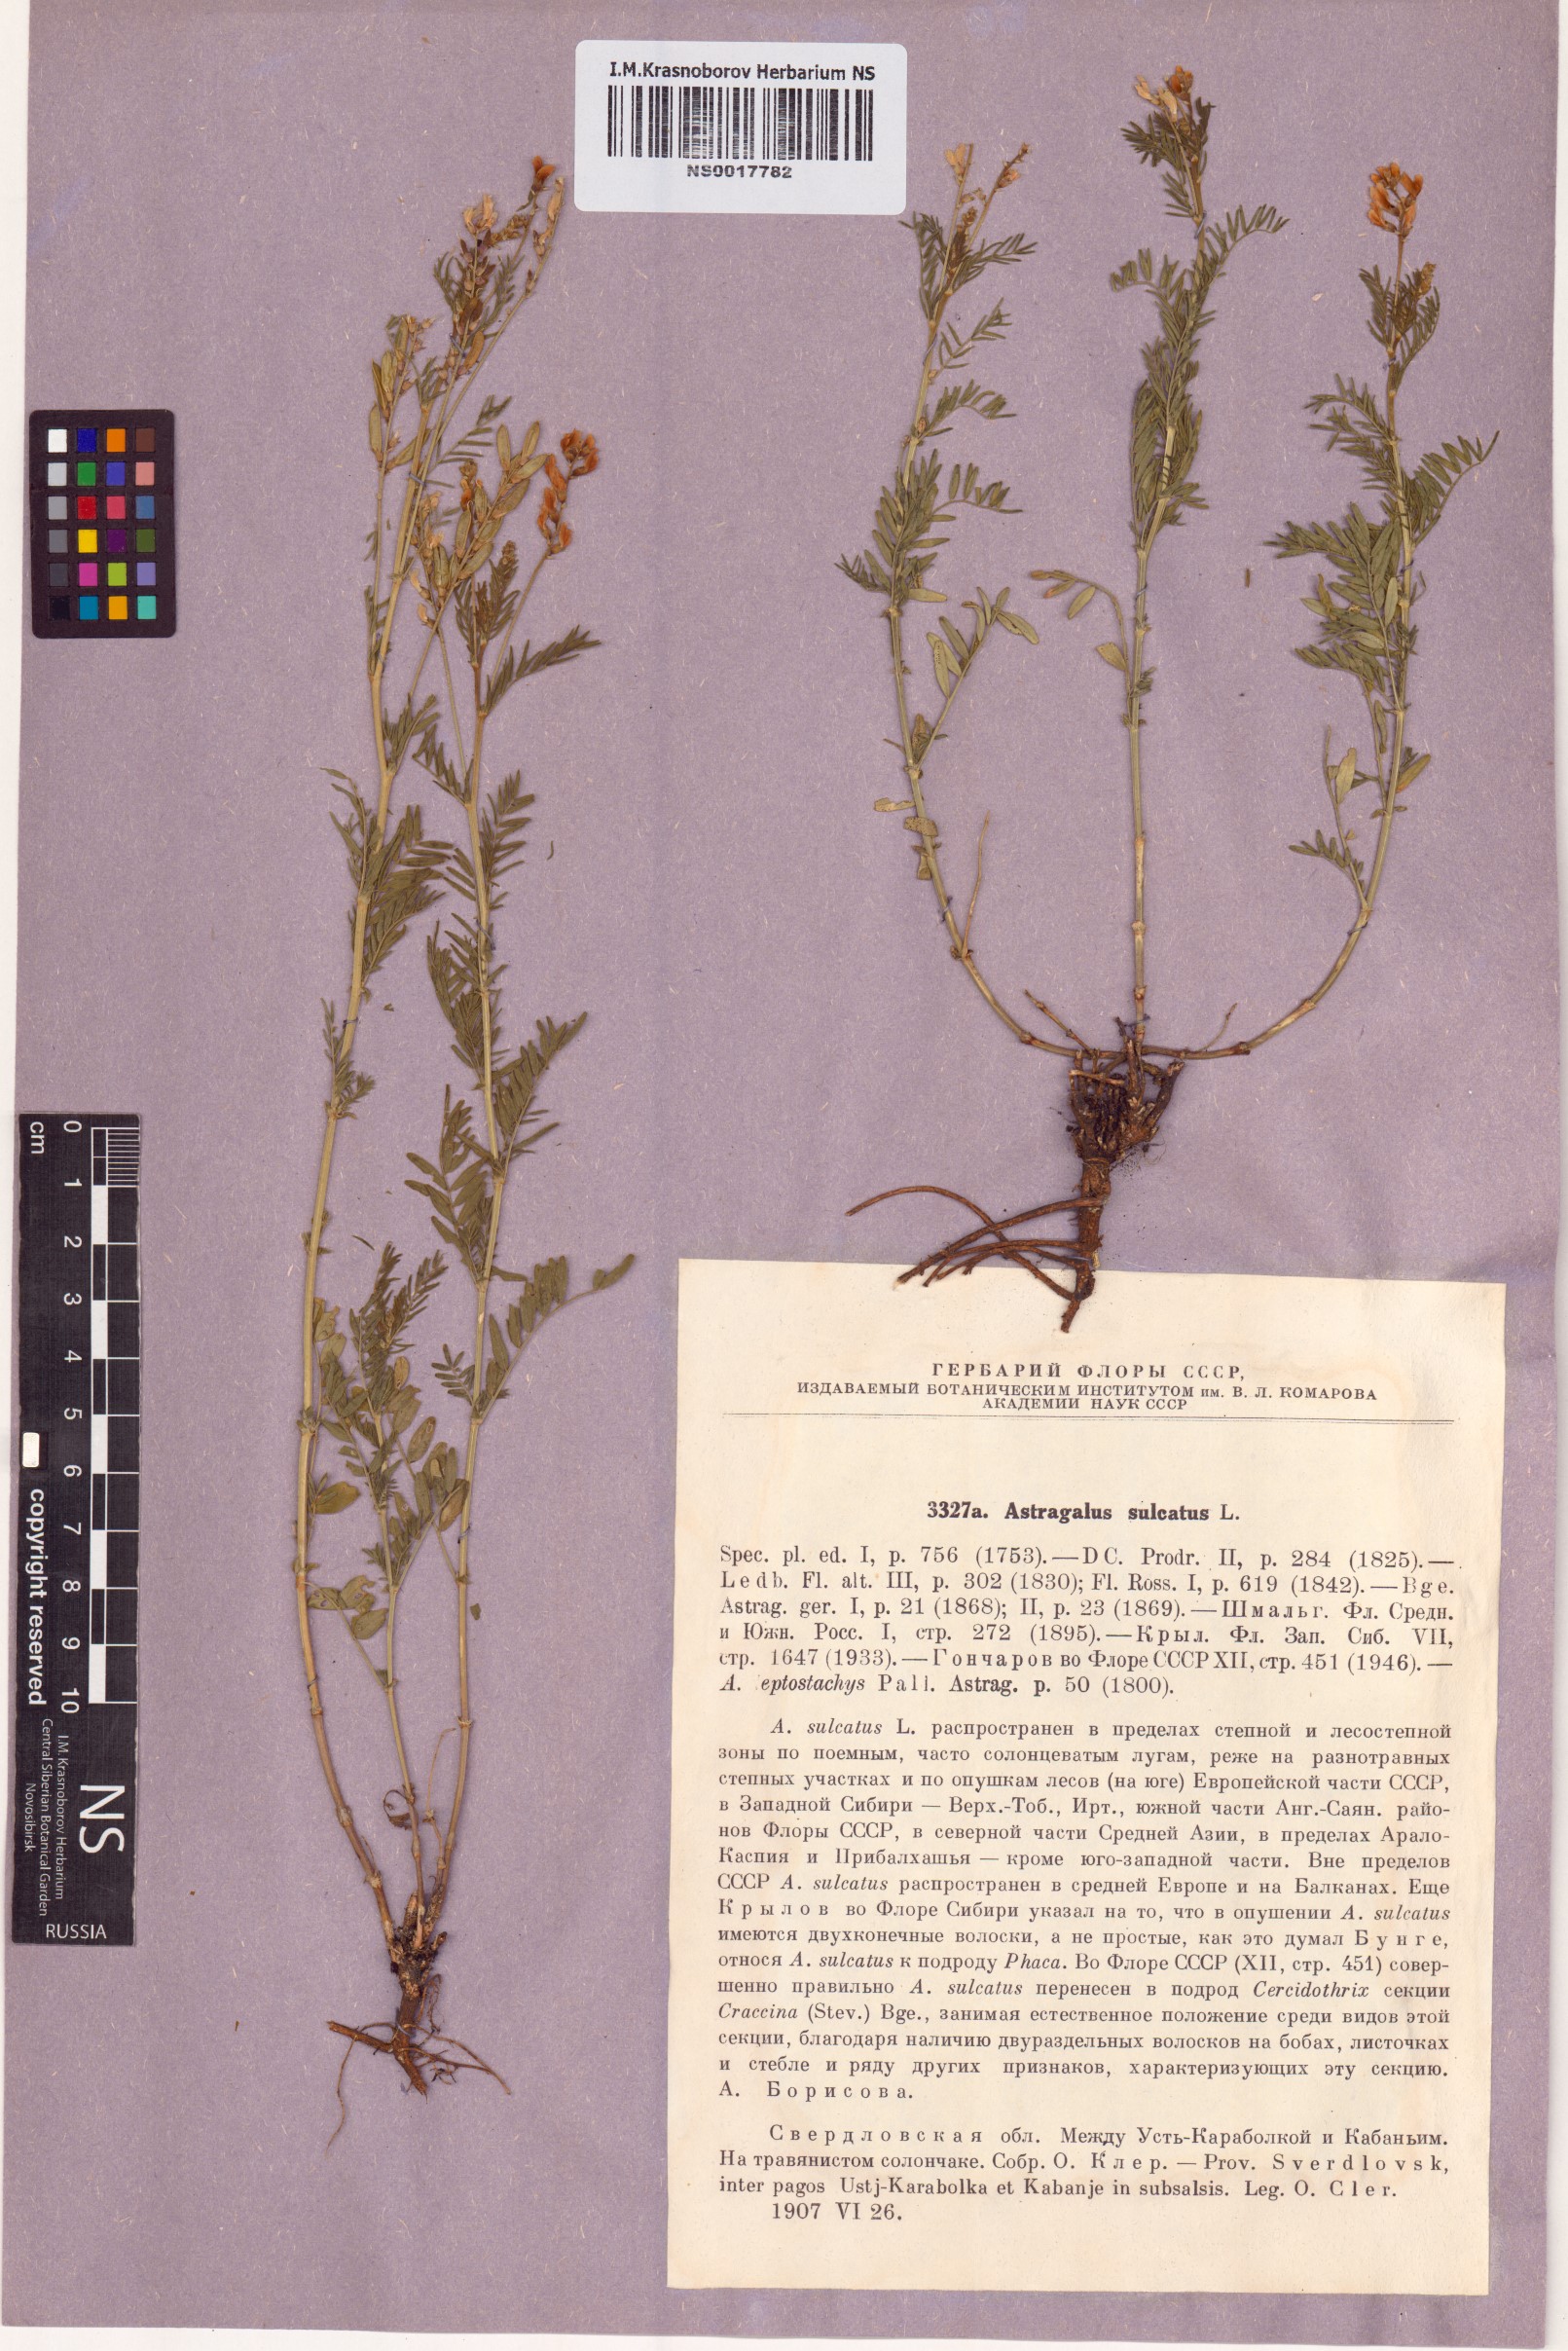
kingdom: Plantae
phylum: Tracheophyta
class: Magnoliopsida
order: Fabales
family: Fabaceae
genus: Astragalus
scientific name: Astragalus sulcatus
